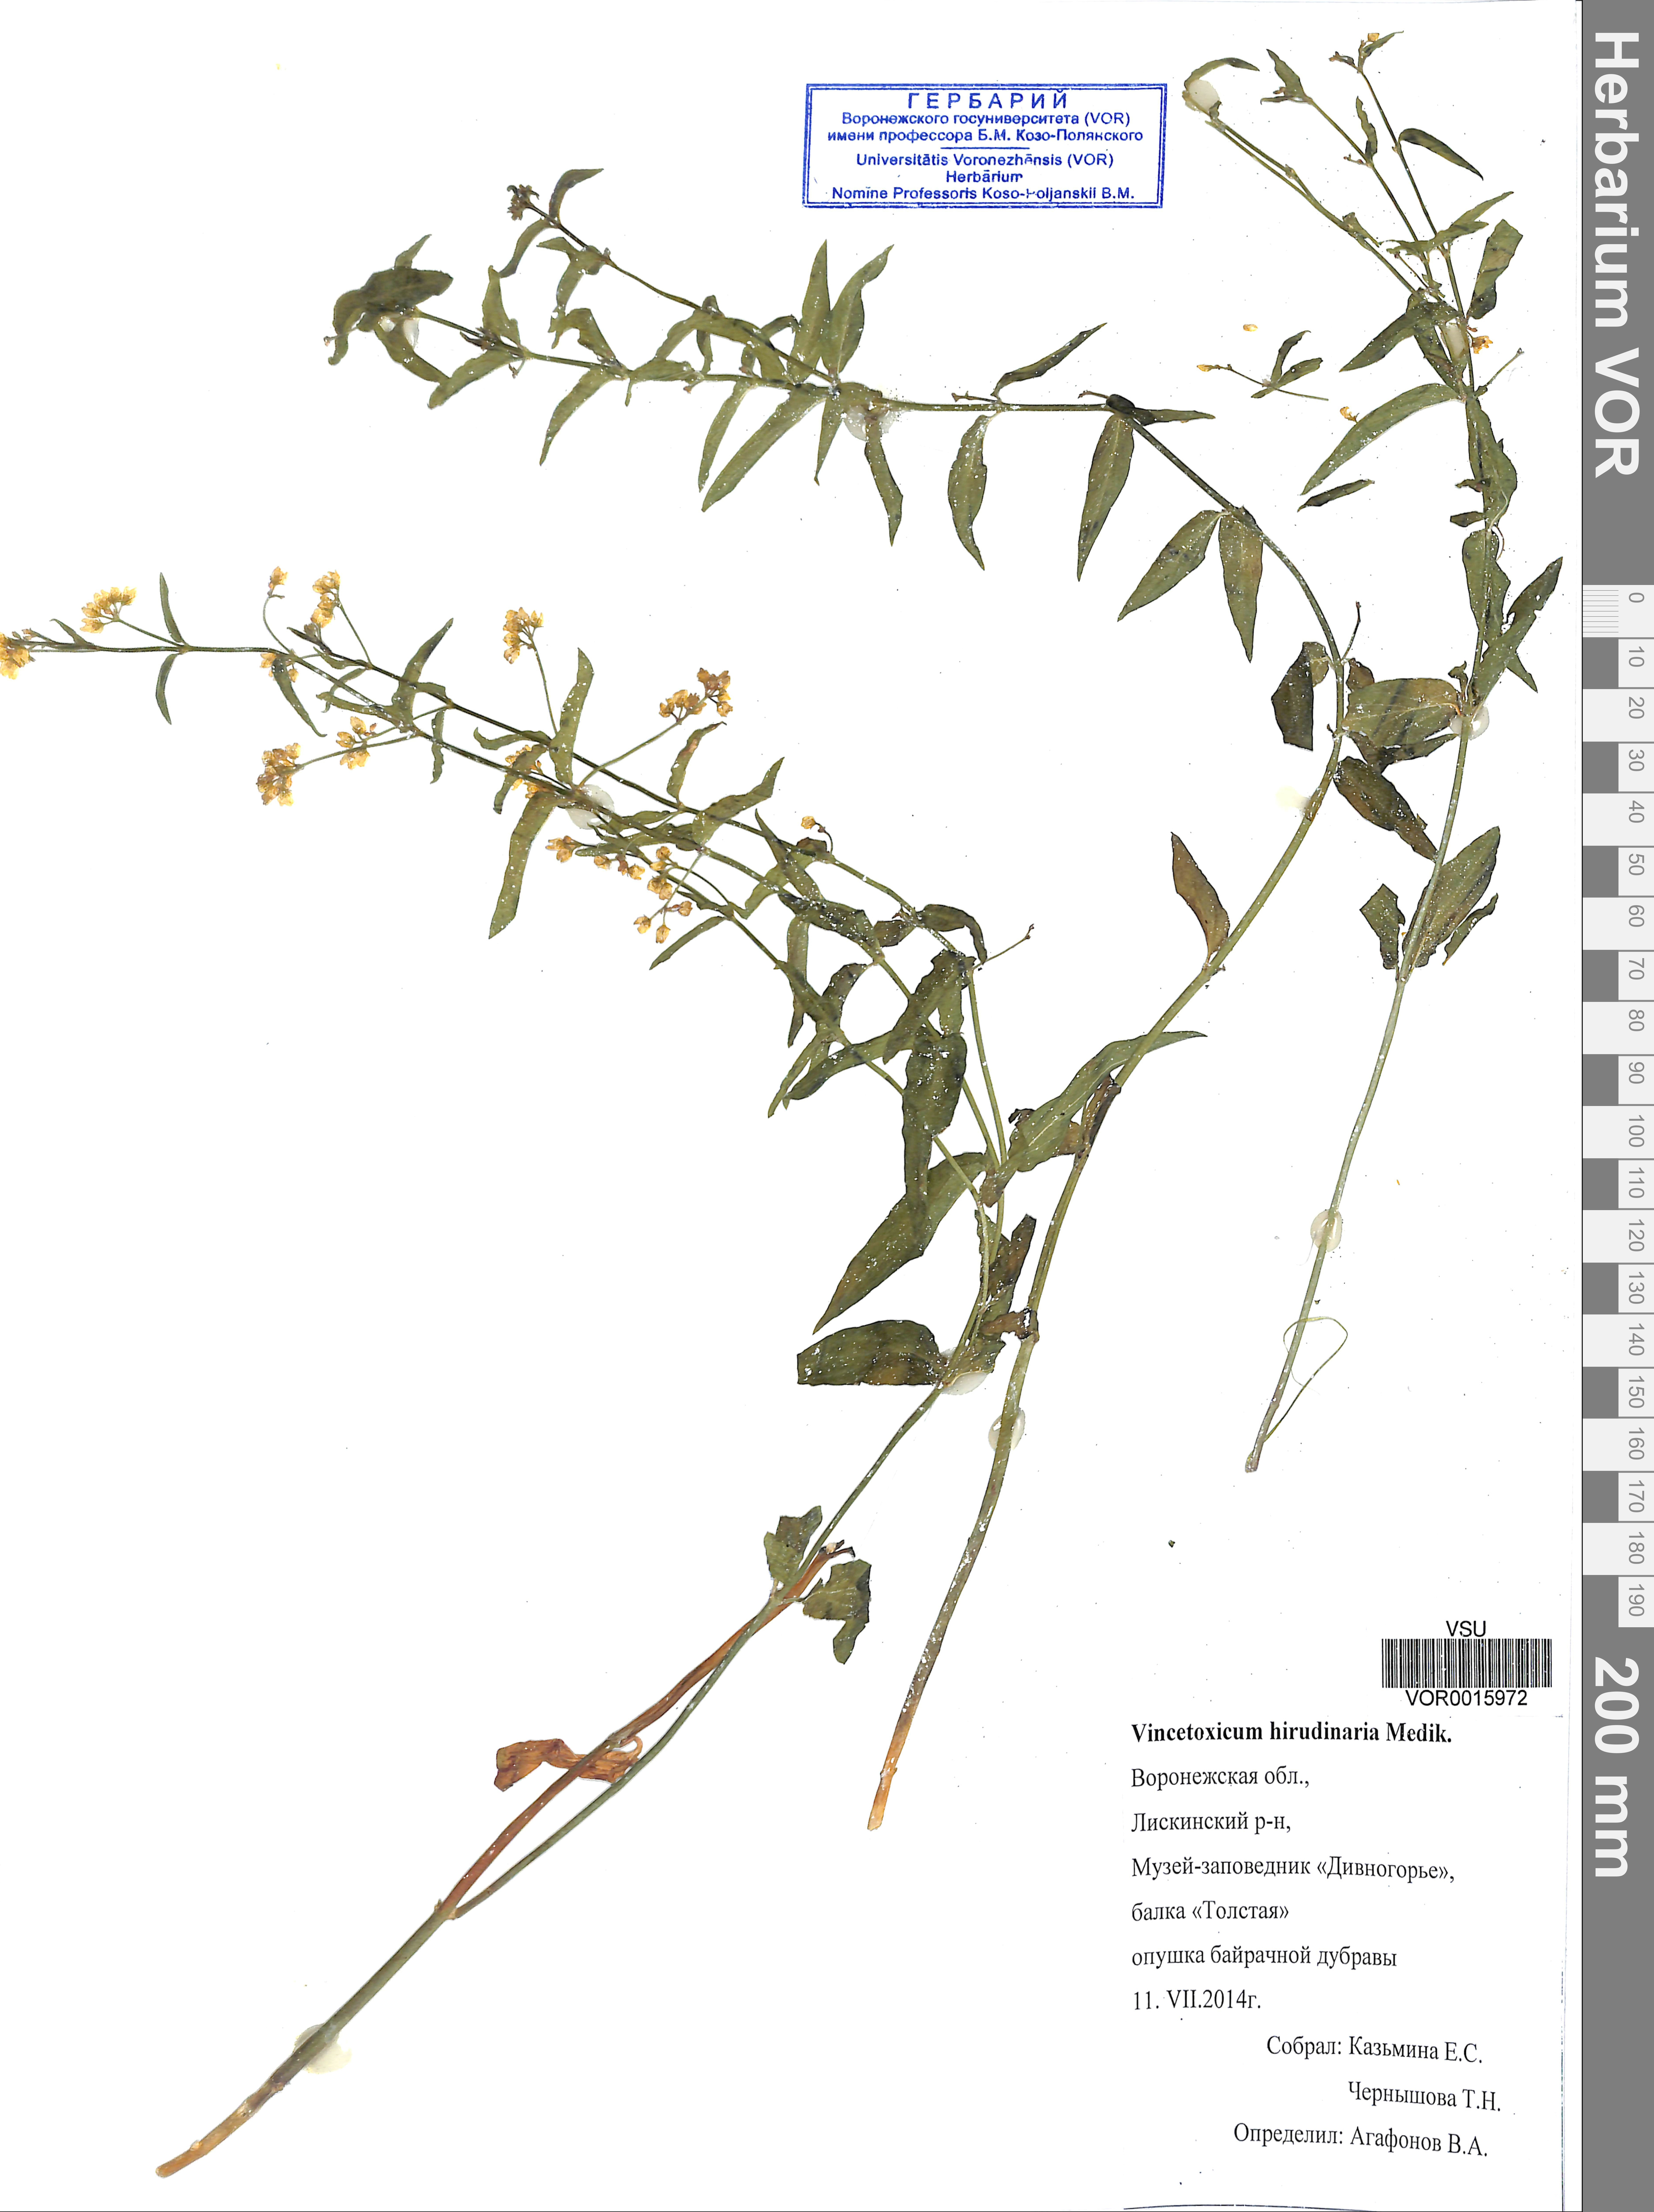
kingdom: Plantae
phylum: Tracheophyta
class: Magnoliopsida
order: Gentianales
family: Apocynaceae
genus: Vincetoxicum
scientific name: Vincetoxicum hirundinaria
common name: White swallowwort
